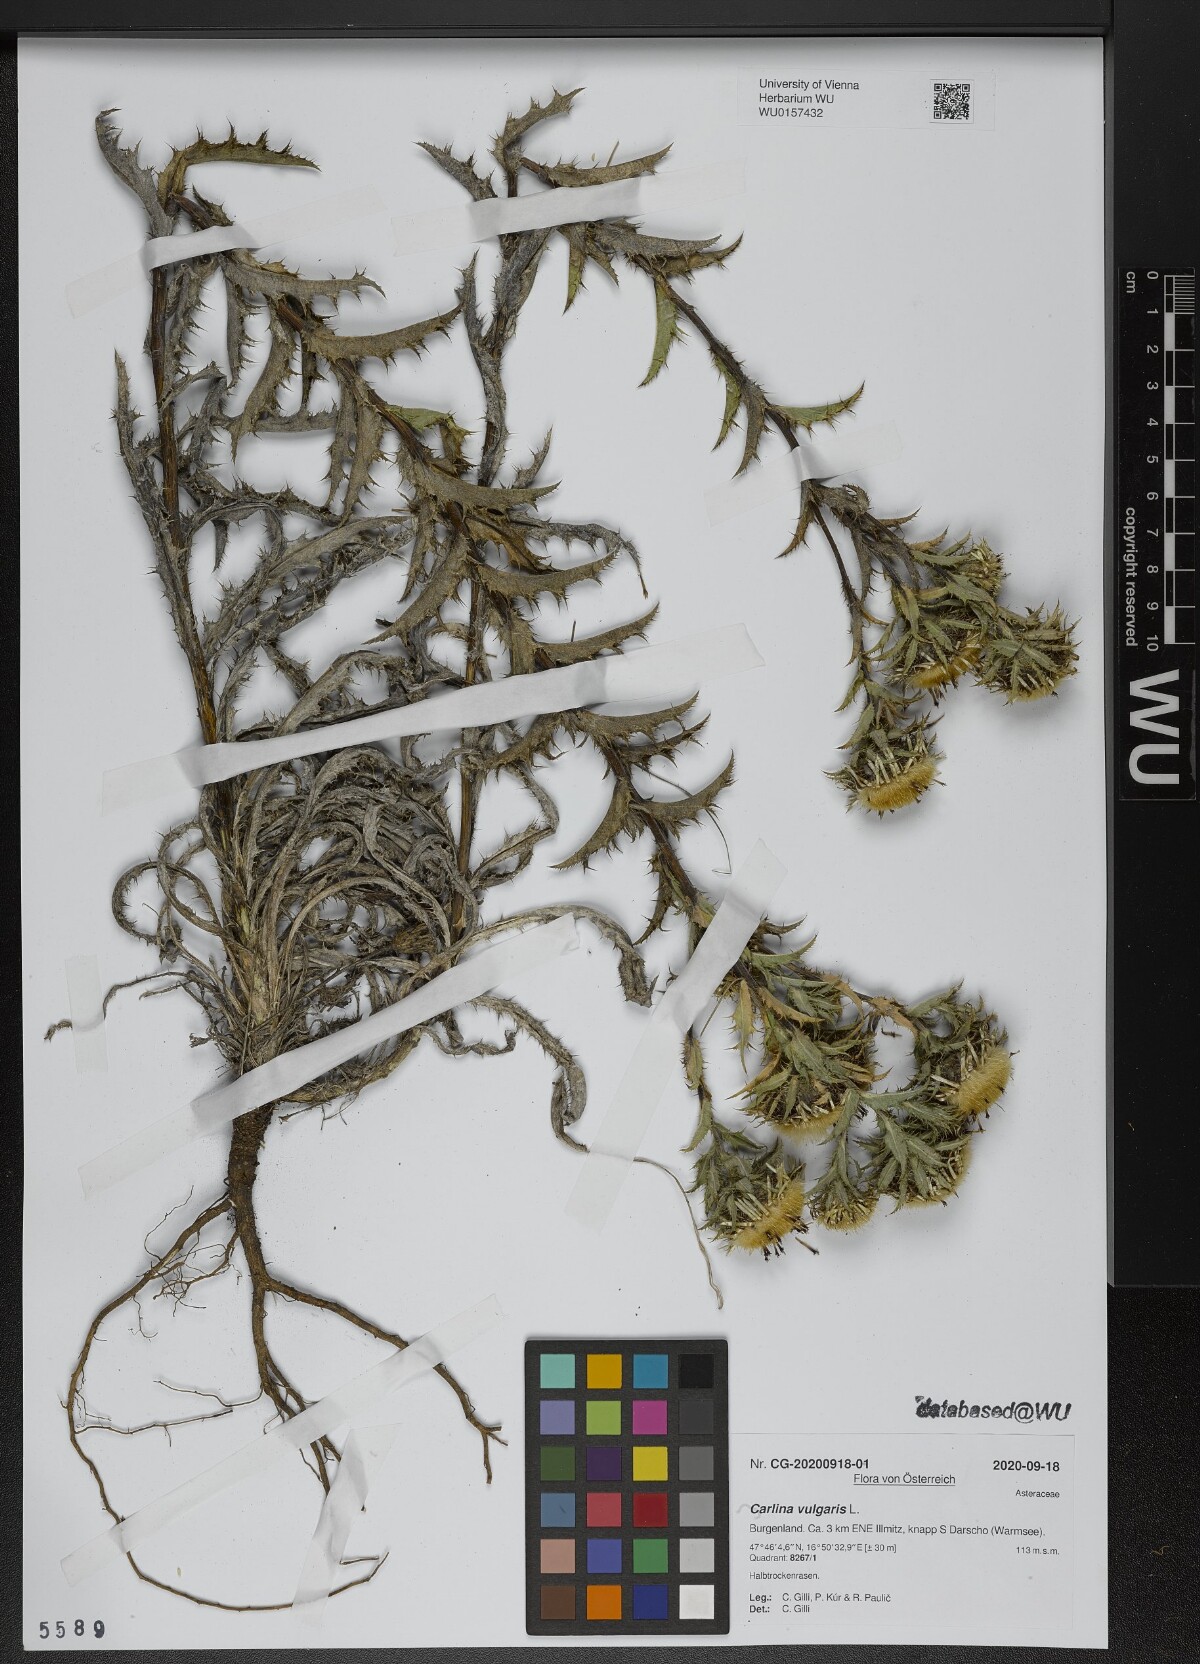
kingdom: Plantae
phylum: Tracheophyta
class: Magnoliopsida
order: Asterales
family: Asteraceae
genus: Carlina
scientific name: Carlina vulgaris
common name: Carline thistle
